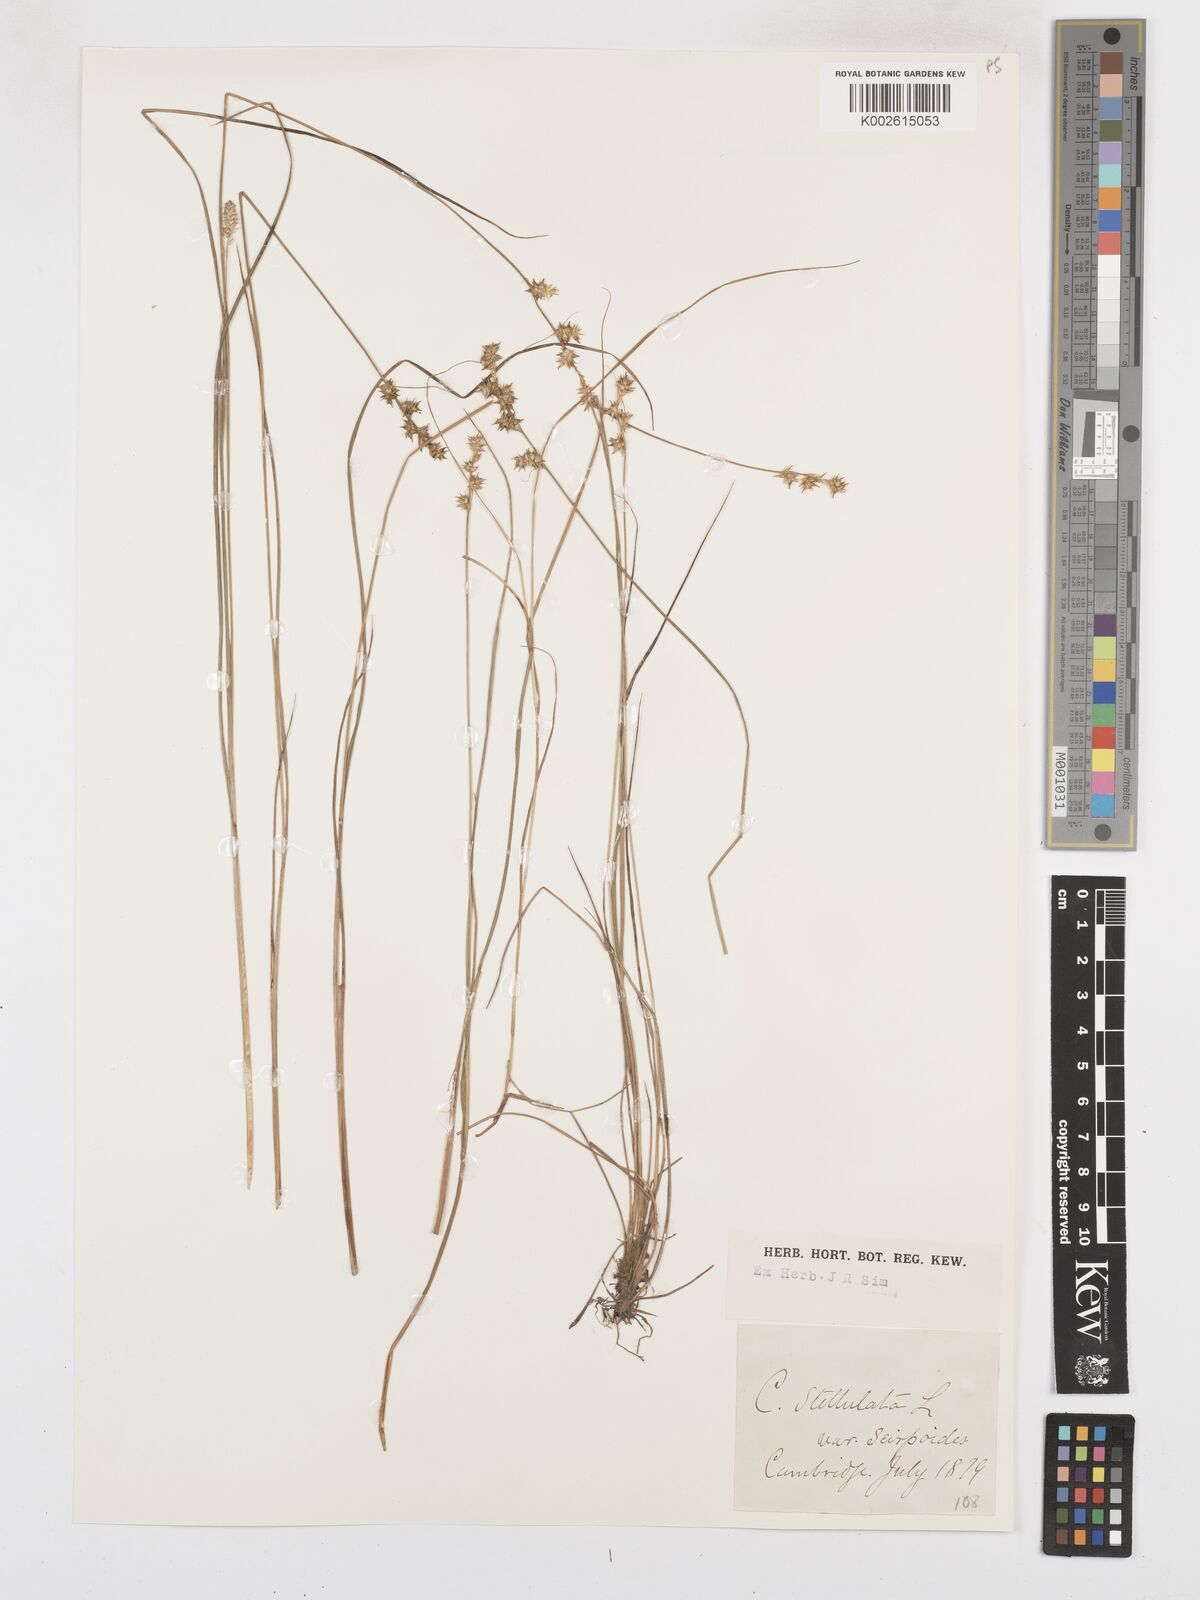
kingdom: Plantae
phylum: Tracheophyta
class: Liliopsida
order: Poales
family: Cyperaceae
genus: Carex
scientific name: Carex atlantica
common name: Atlantic sedge
